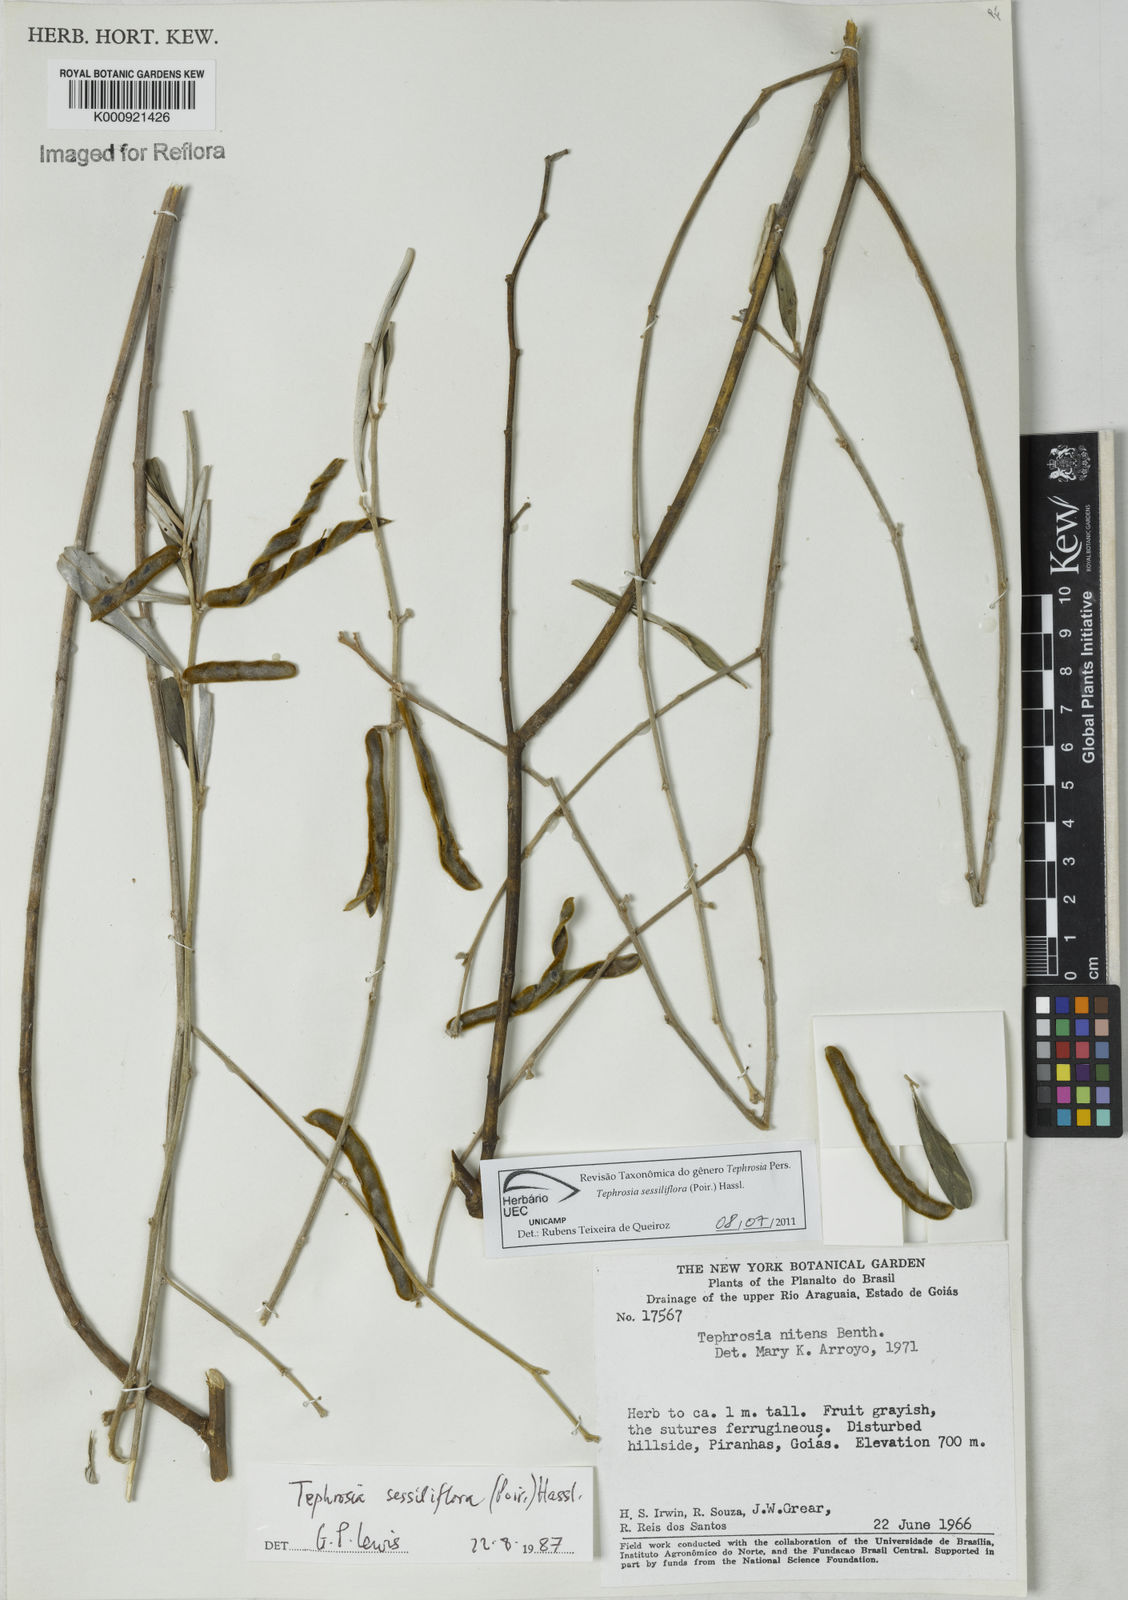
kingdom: Plantae
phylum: Tracheophyta
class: Magnoliopsida
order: Fabales
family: Fabaceae
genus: Tephrosia
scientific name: Tephrosia sessiliflora
